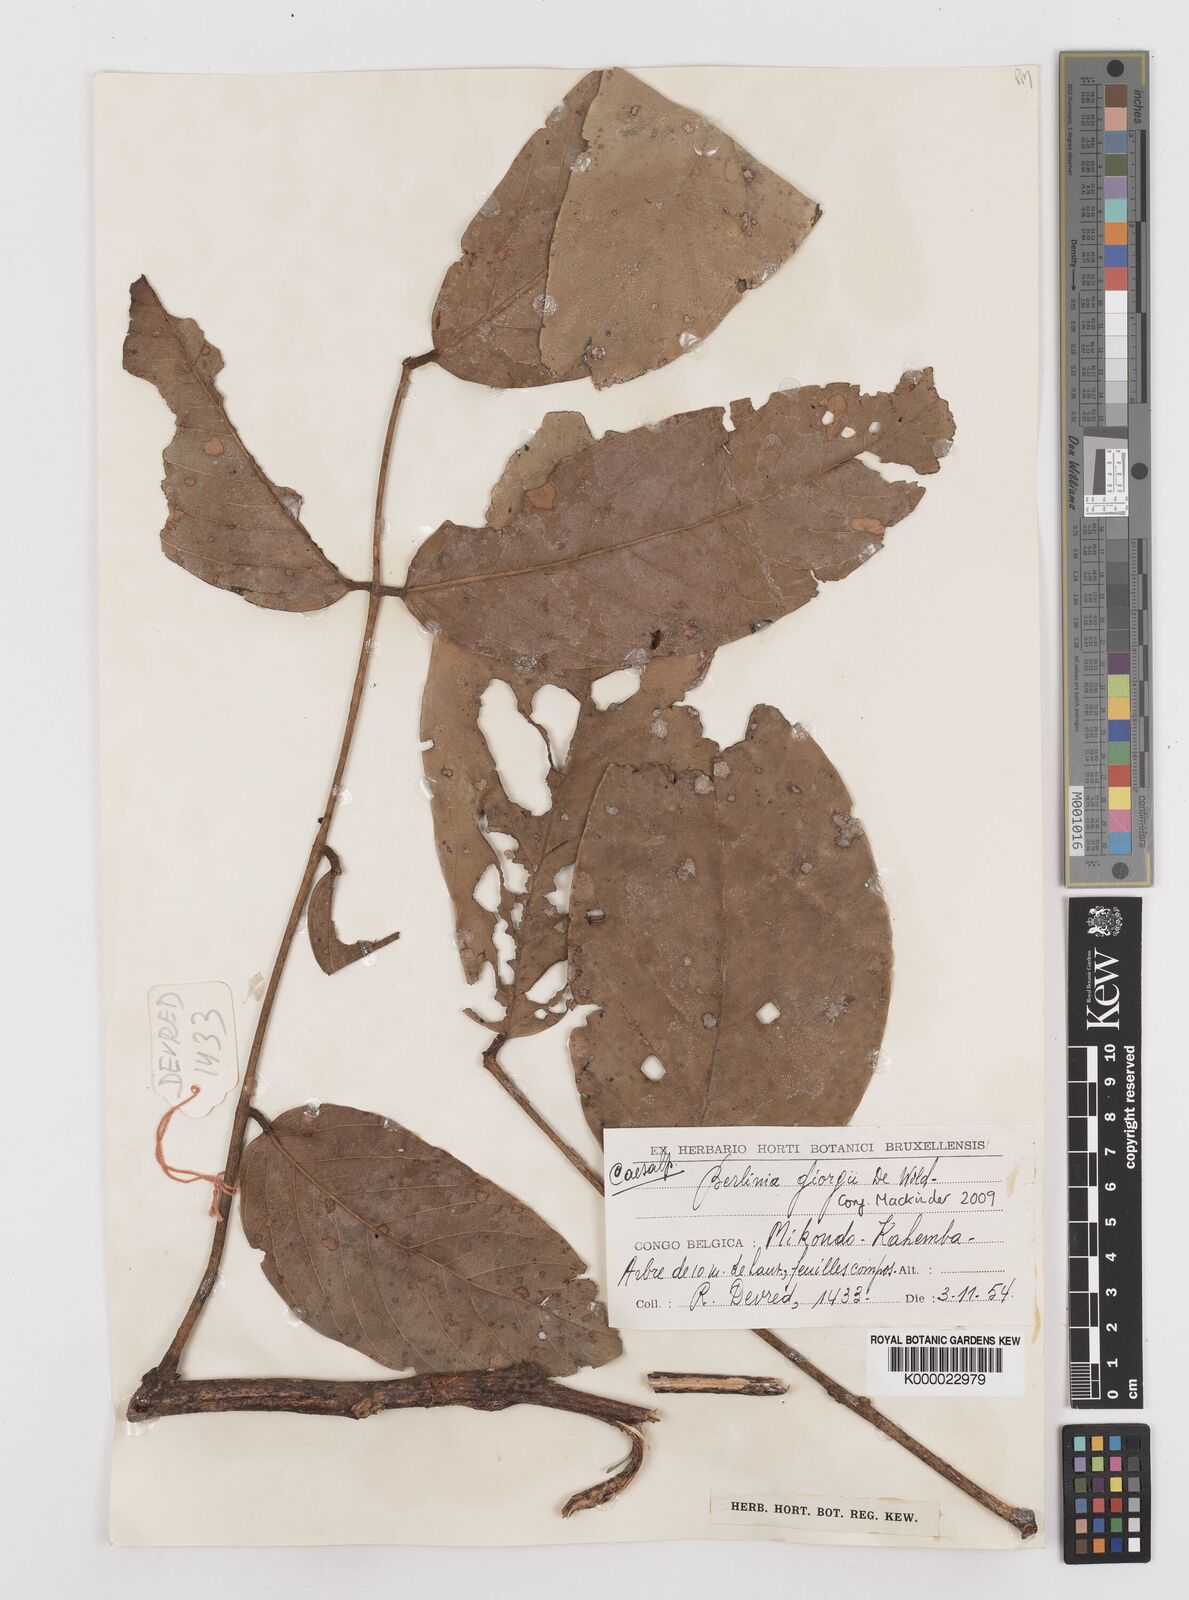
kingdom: Plantae
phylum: Tracheophyta
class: Magnoliopsida
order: Fabales
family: Fabaceae
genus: Berlinia
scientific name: Berlinia giorgii
